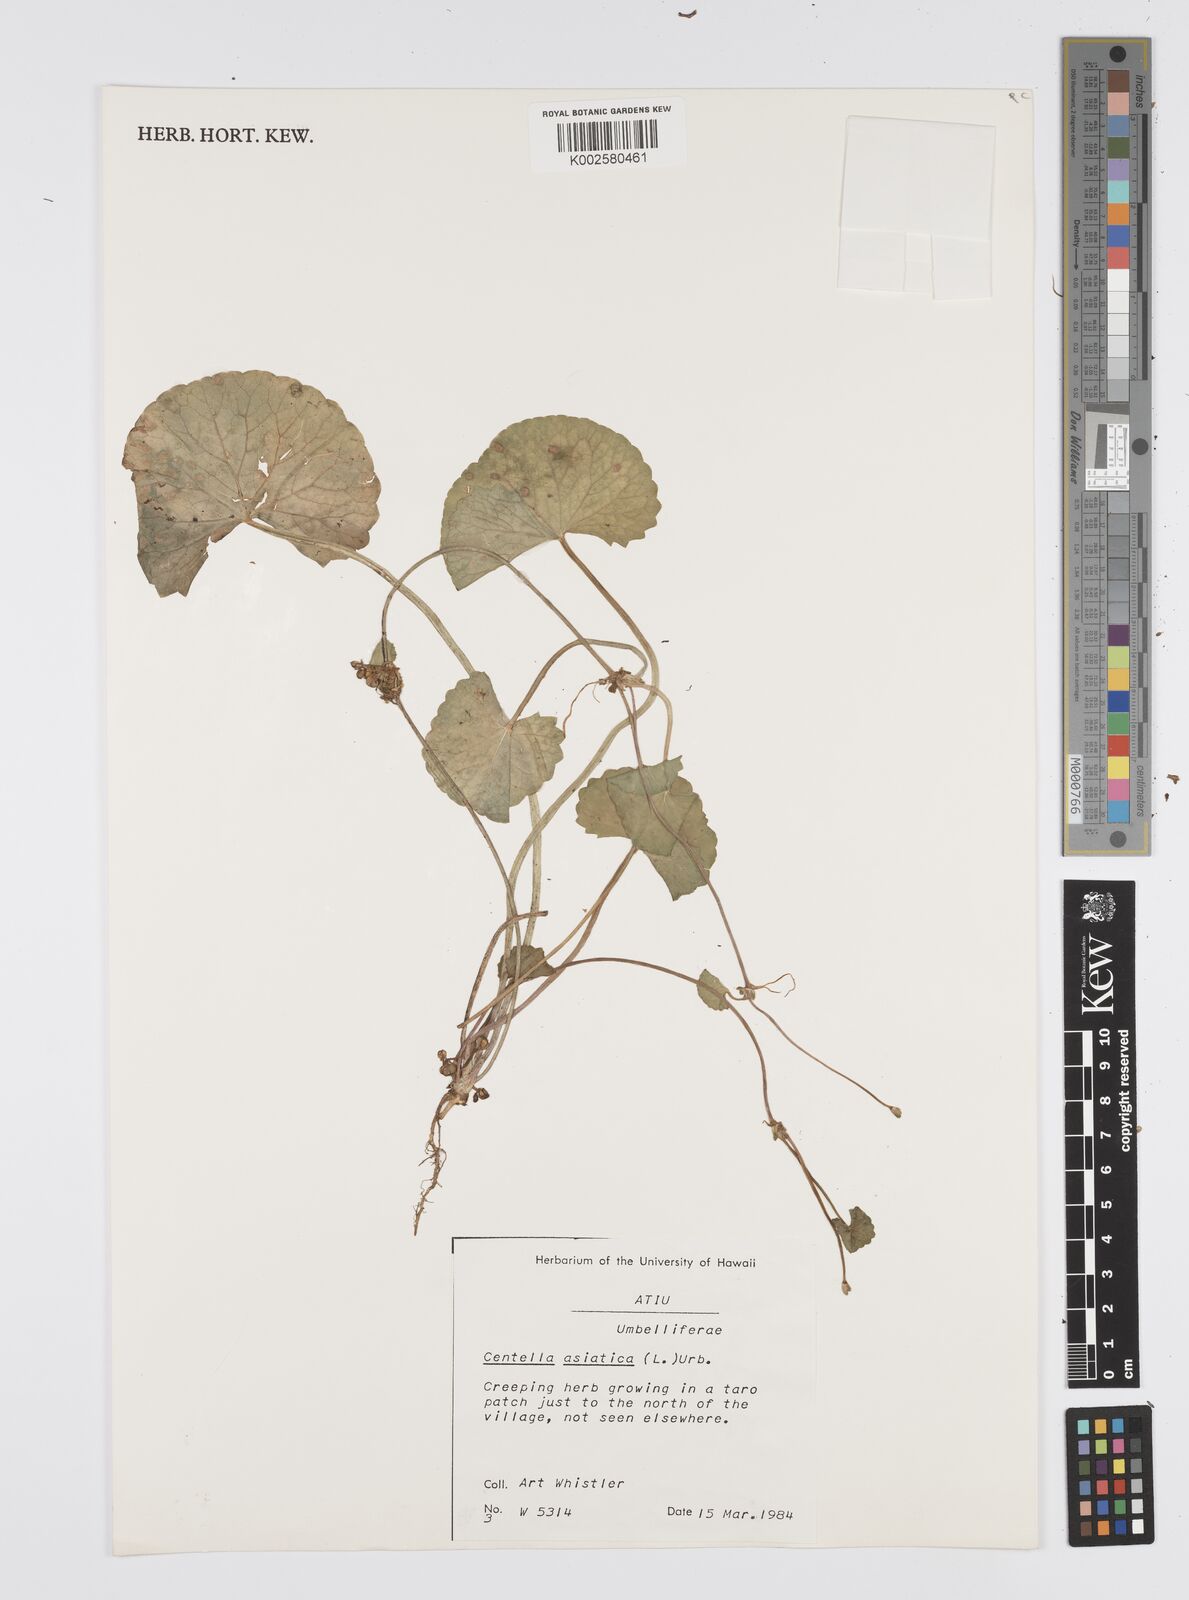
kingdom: Plantae
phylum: Tracheophyta
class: Magnoliopsida
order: Apiales
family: Apiaceae
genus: Centella
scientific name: Centella asiatica
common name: Spadeleaf
